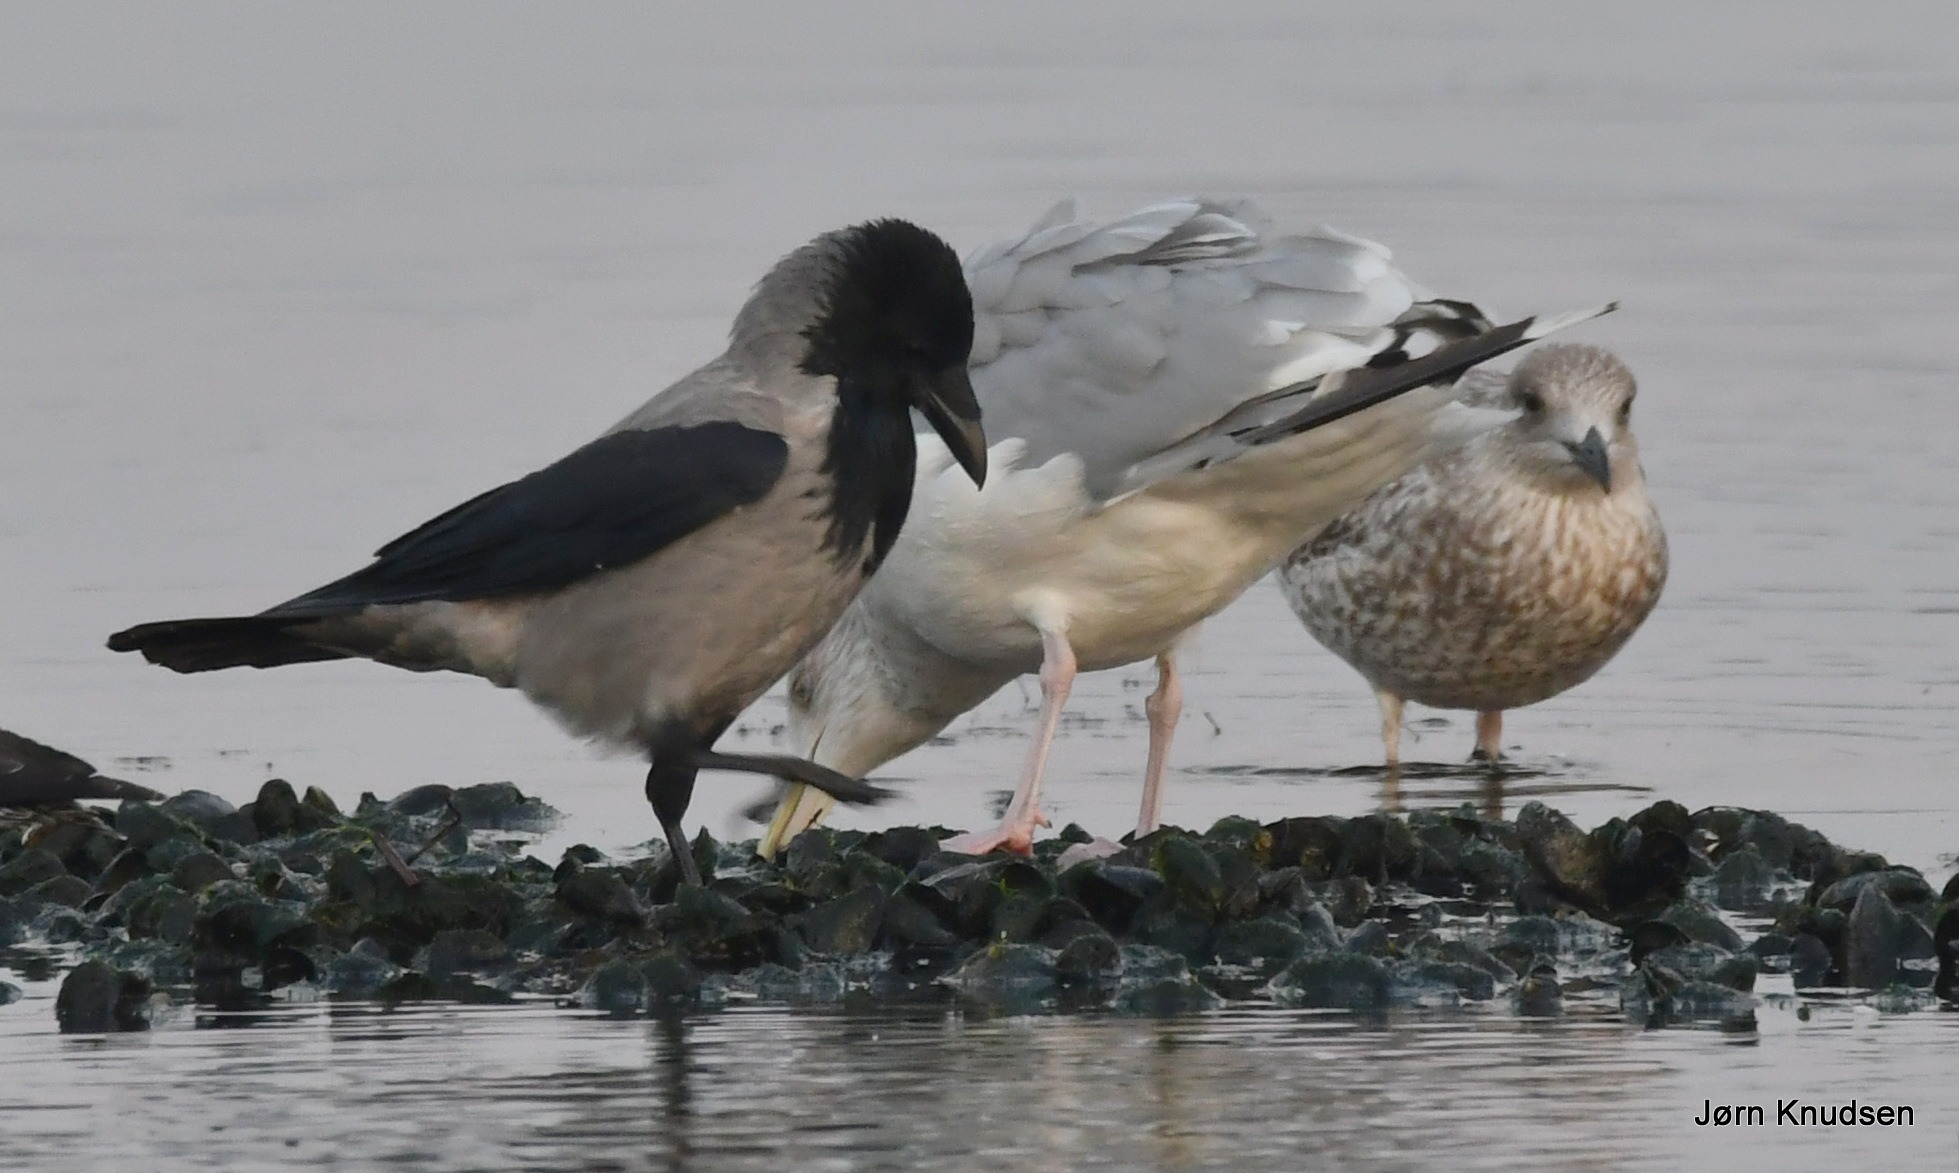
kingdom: Animalia
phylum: Chordata
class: Aves
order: Passeriformes
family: Corvidae
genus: Corvus
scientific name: Corvus cornix
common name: Gråkrage
